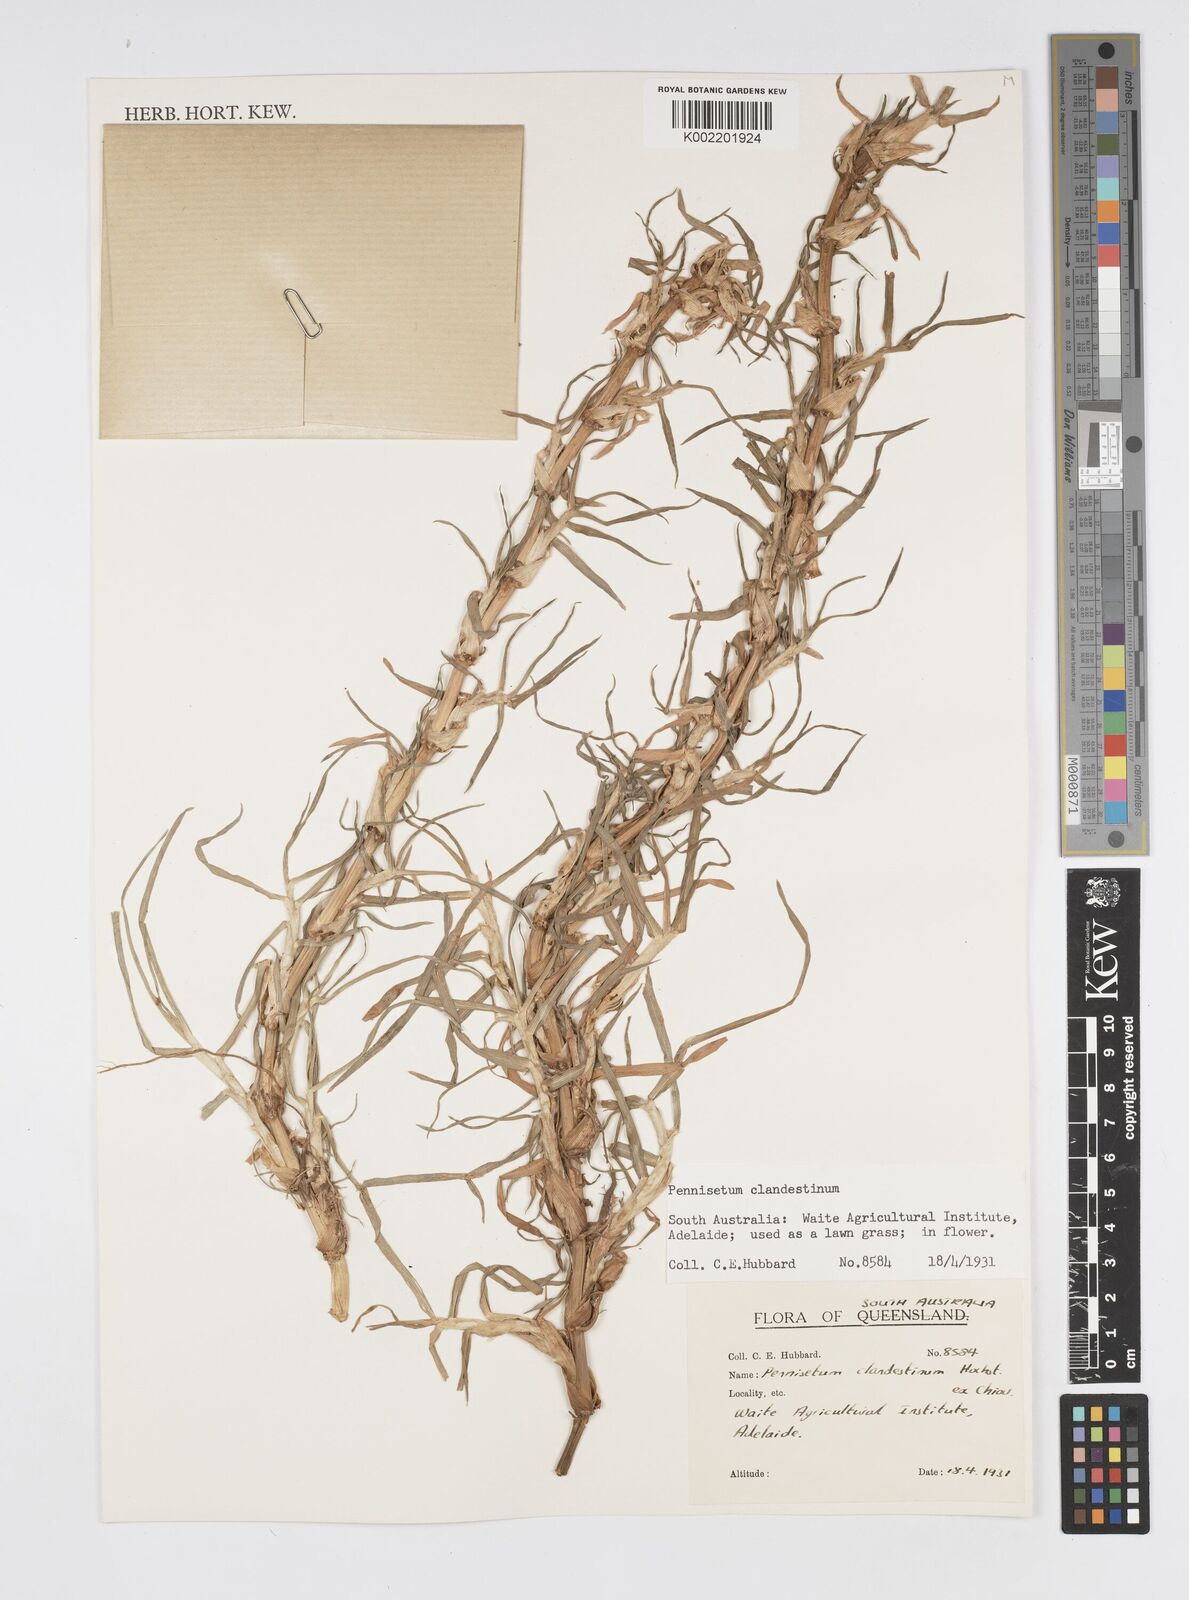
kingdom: Plantae
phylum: Tracheophyta
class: Liliopsida
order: Poales
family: Poaceae
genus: Cenchrus
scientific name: Cenchrus clandestinus
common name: Kikuyugrass
